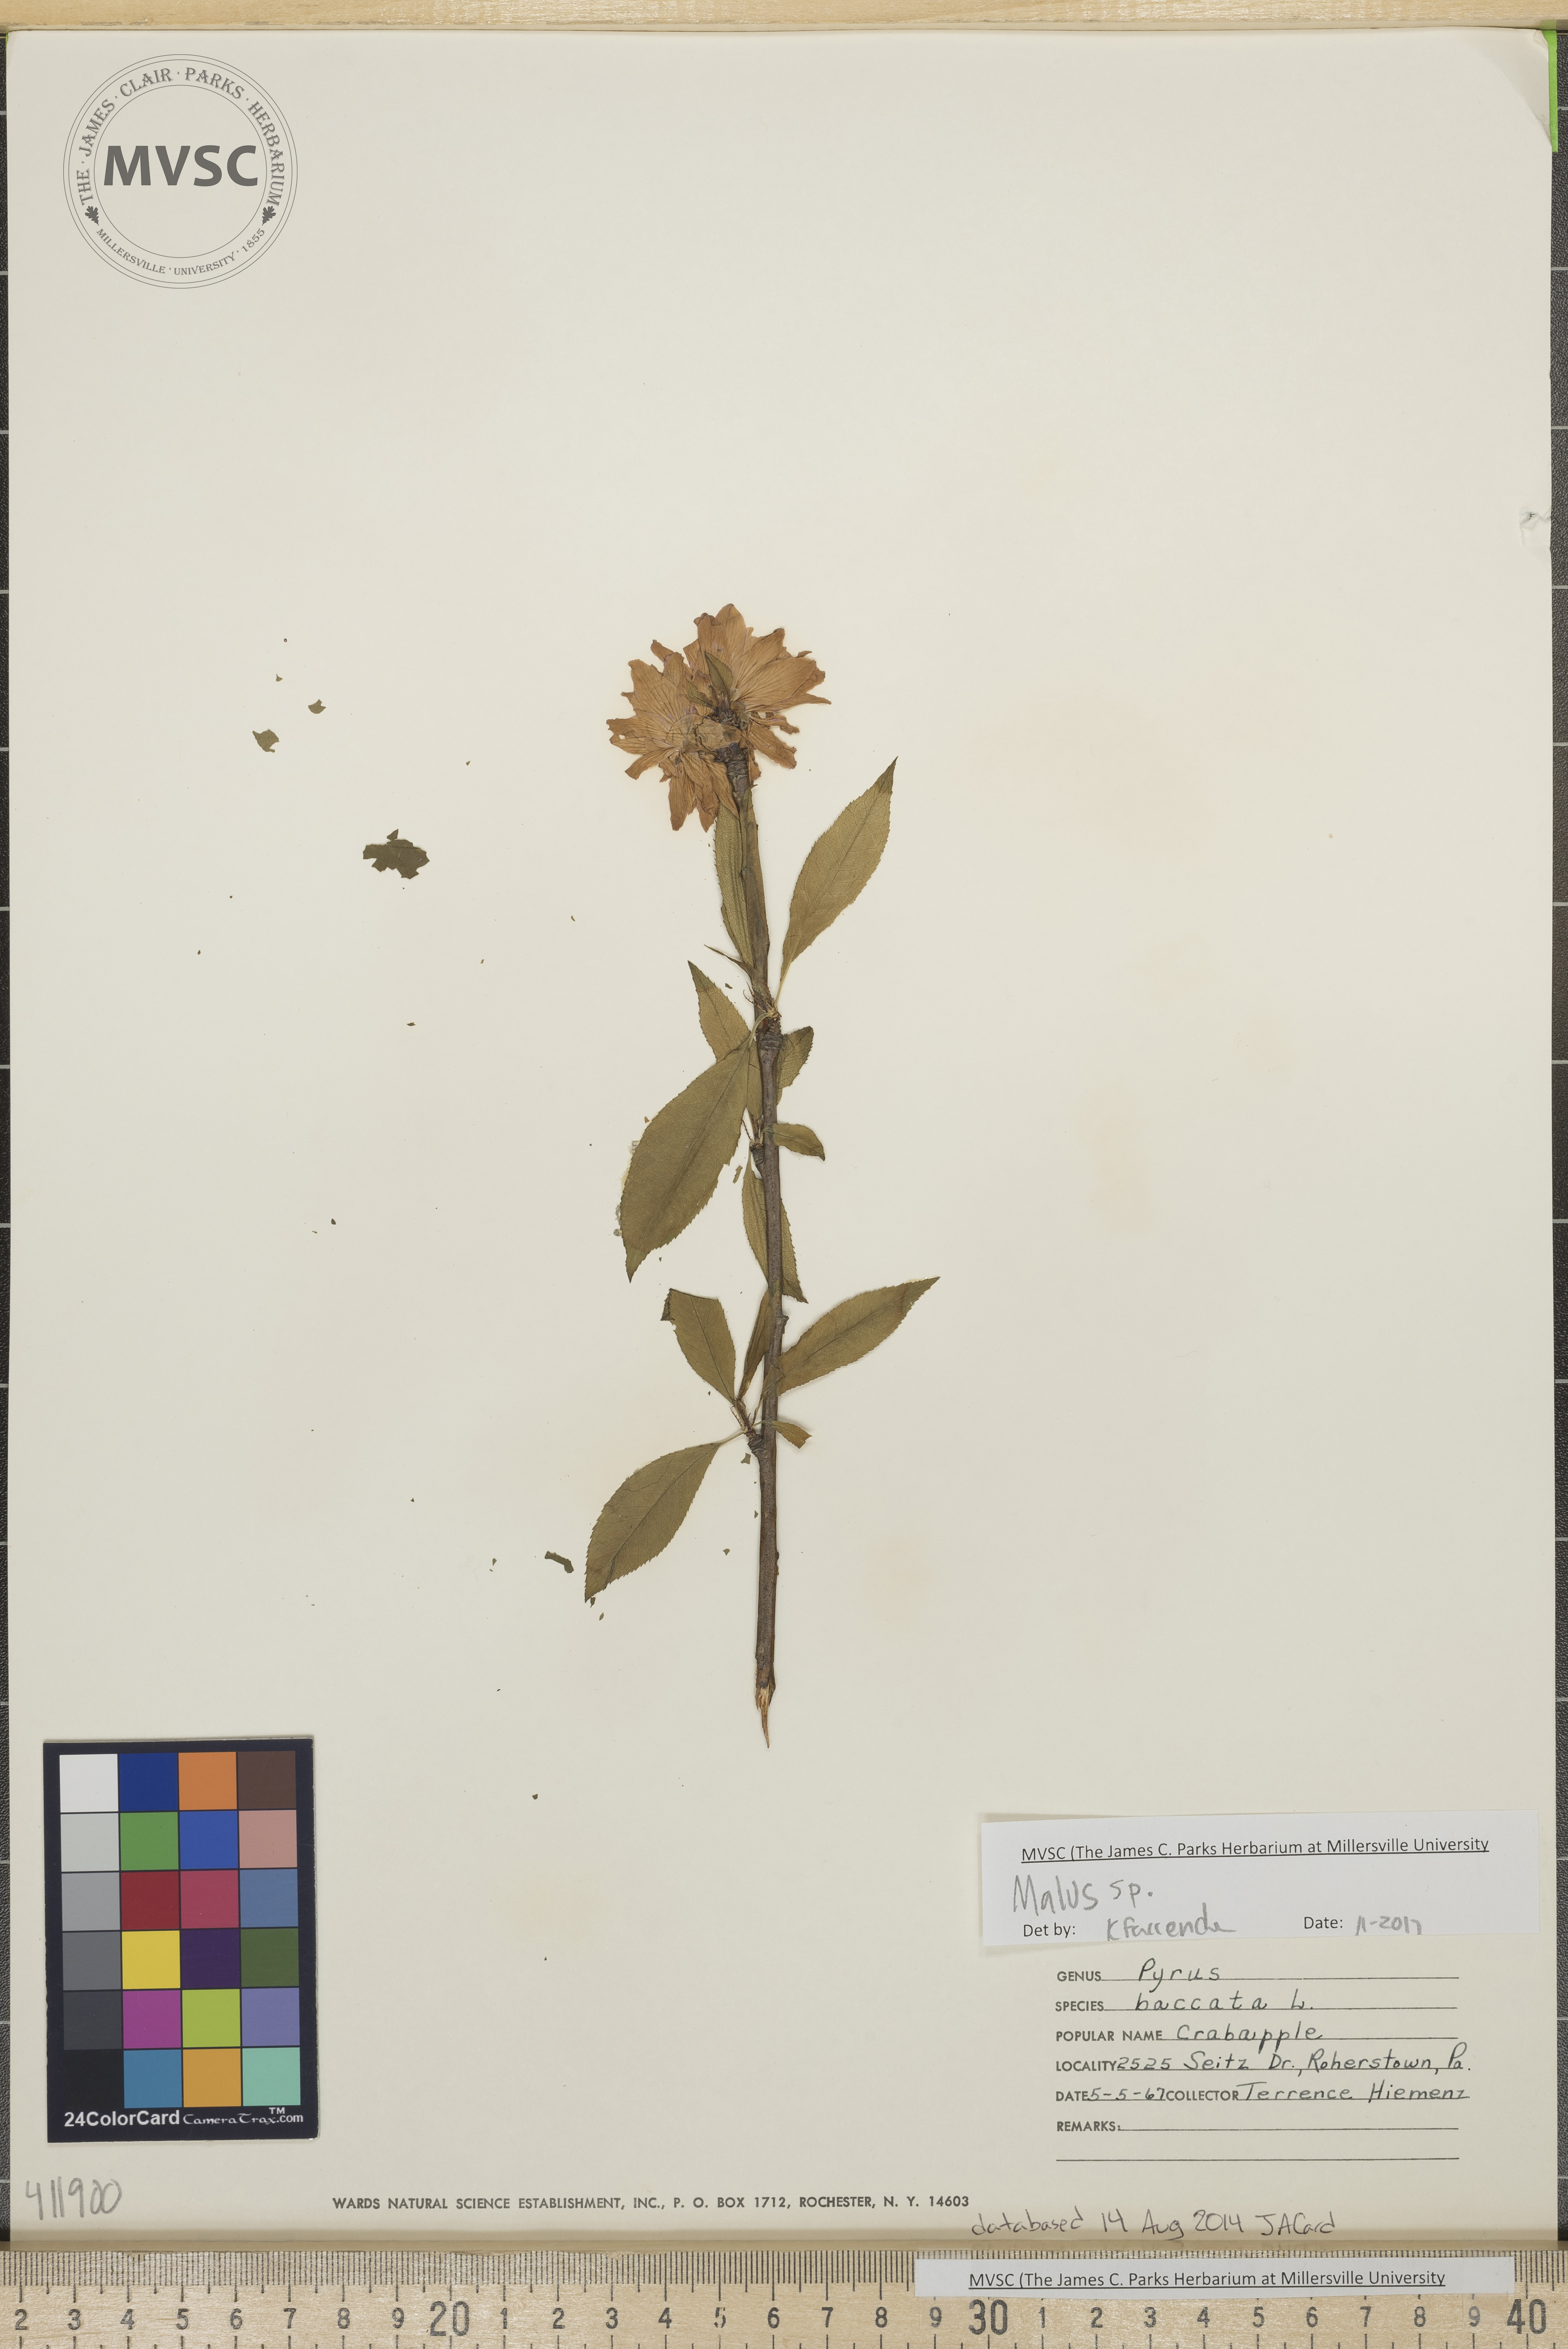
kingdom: Plantae
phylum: Tracheophyta
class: Magnoliopsida
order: Rosales
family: Rosaceae
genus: Malus
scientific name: Malus
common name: Crabapple
